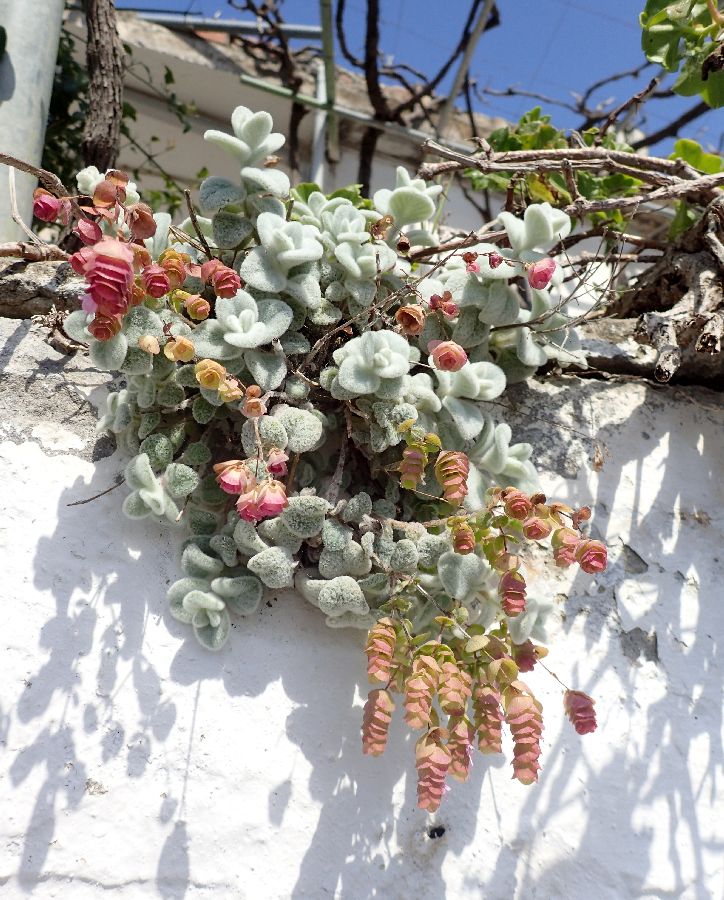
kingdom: Plantae
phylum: Tracheophyta
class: Magnoliopsida
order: Lamiales
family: Lamiaceae
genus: Origanum
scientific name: Origanum dictamnus
